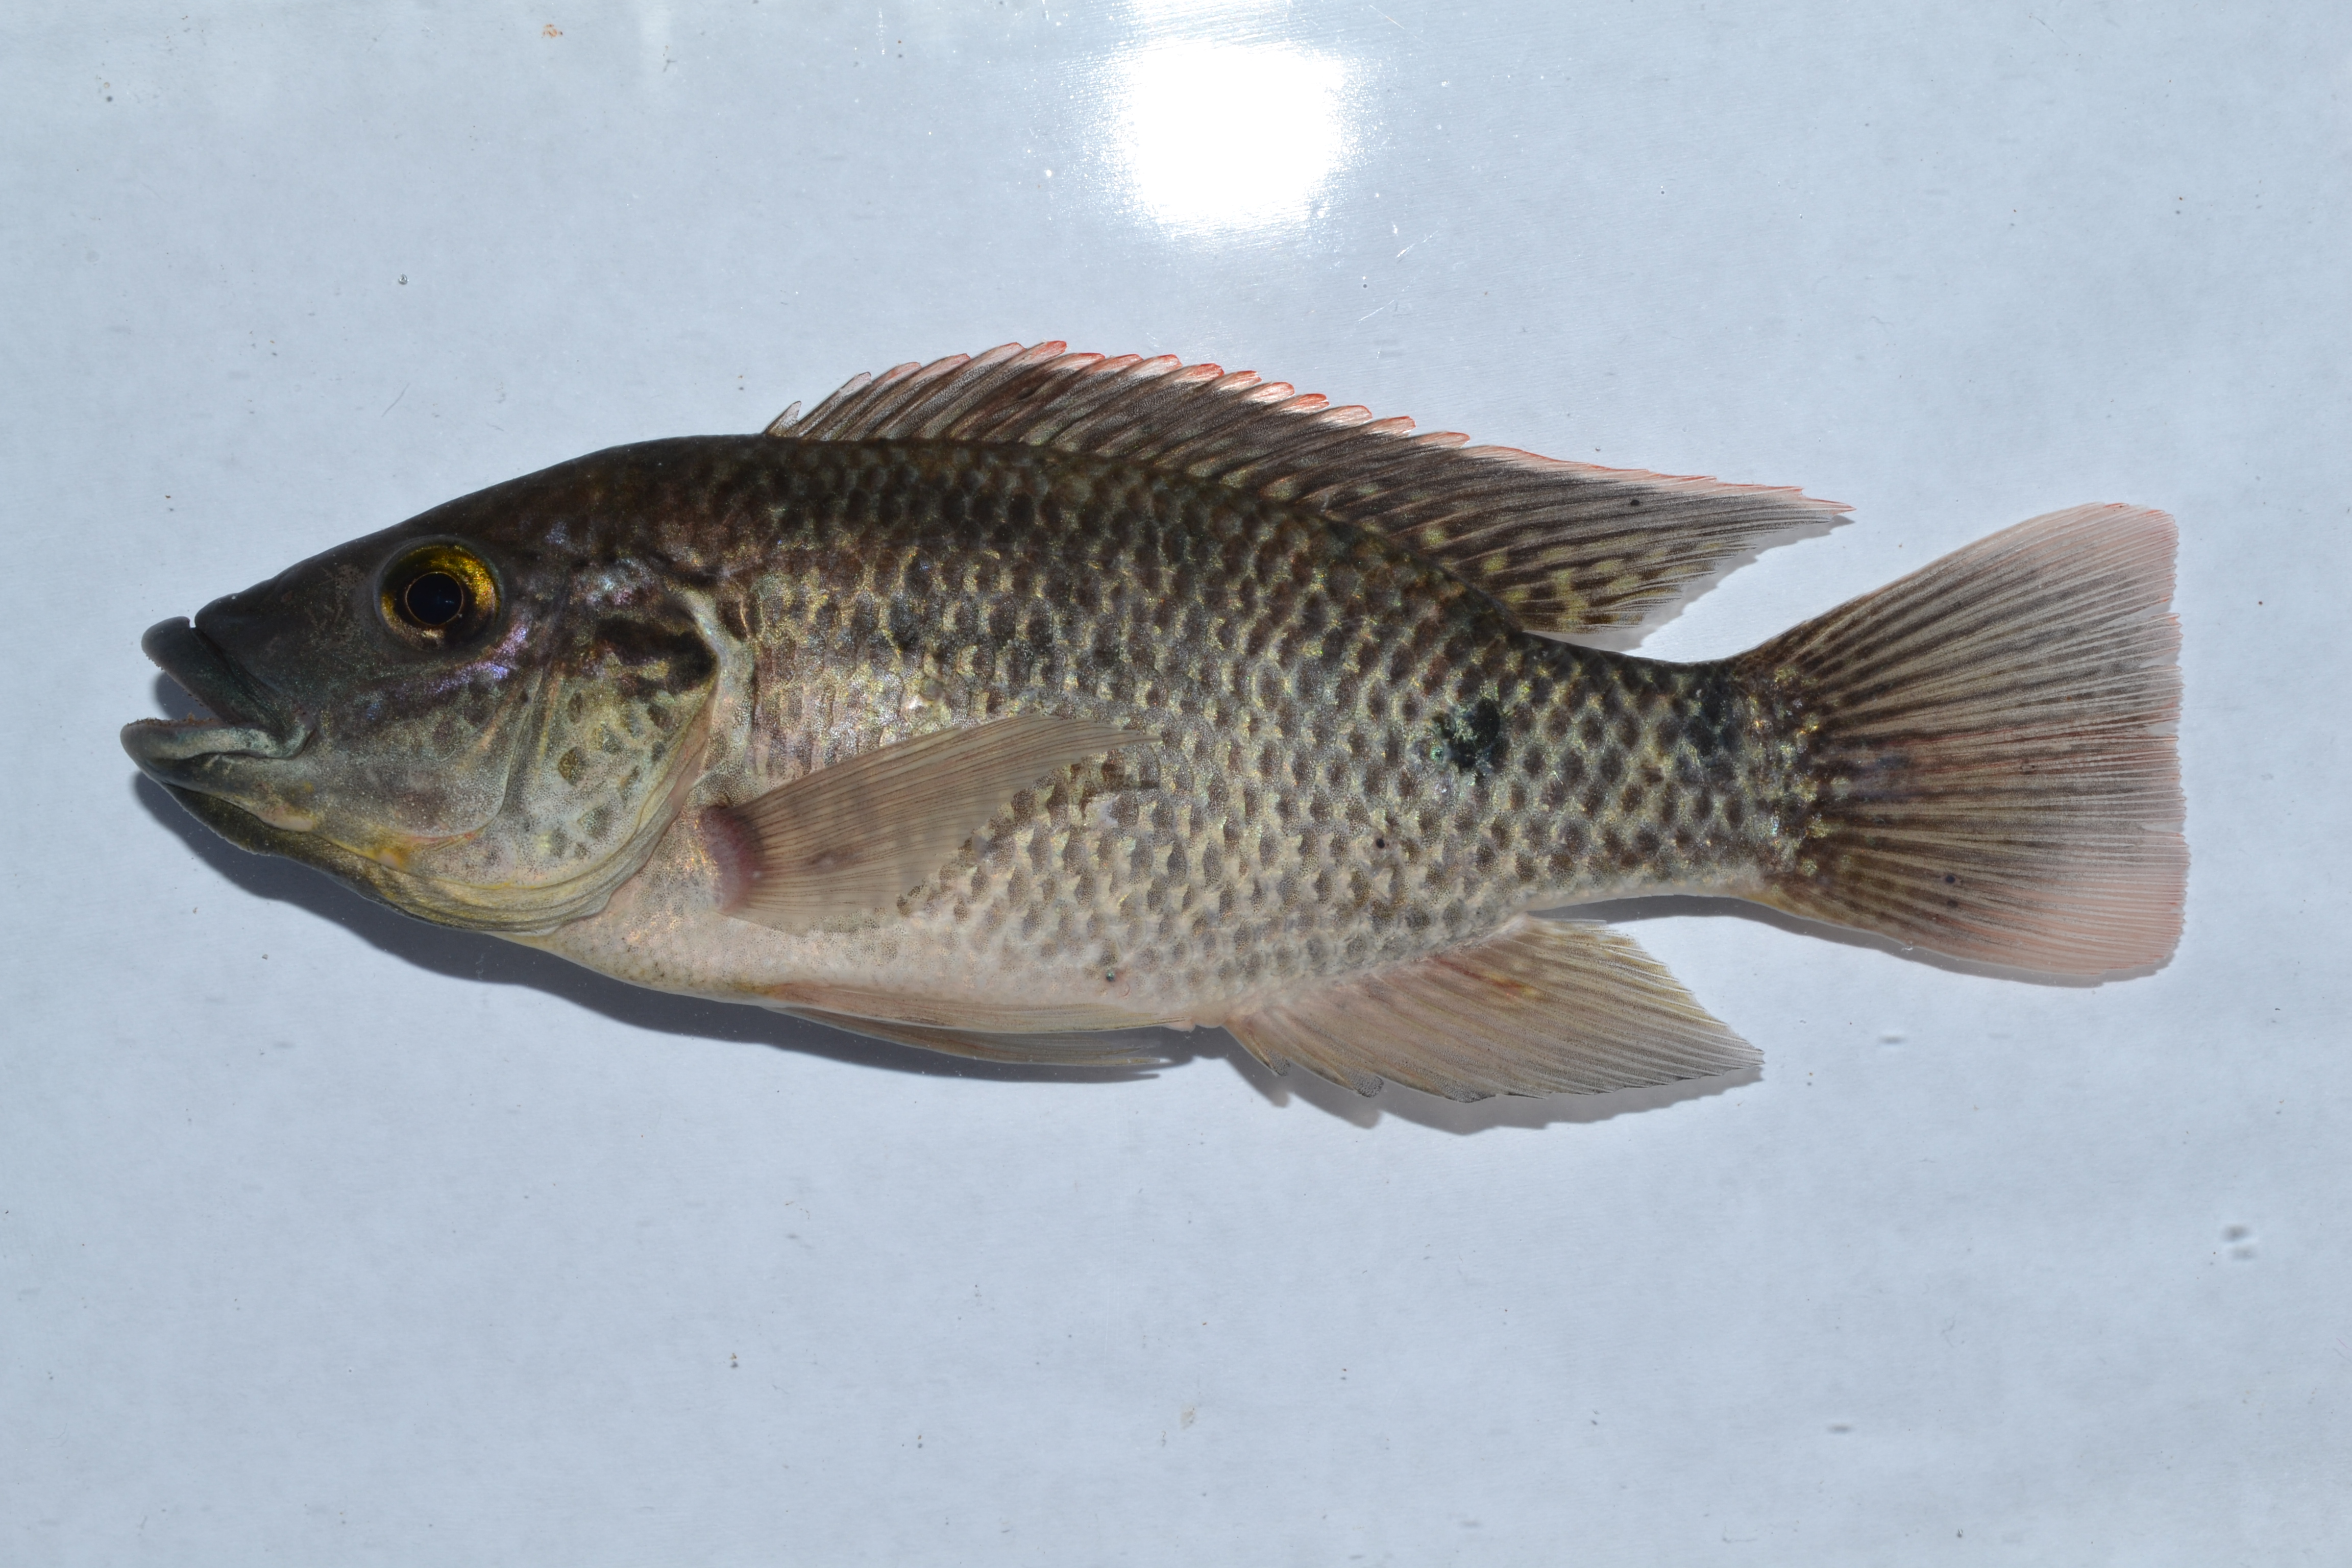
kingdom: Animalia
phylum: Chordata
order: Perciformes
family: Cichlidae
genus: Oreochromis
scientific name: Oreochromis mossambicus
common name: Mozambique tilapia
